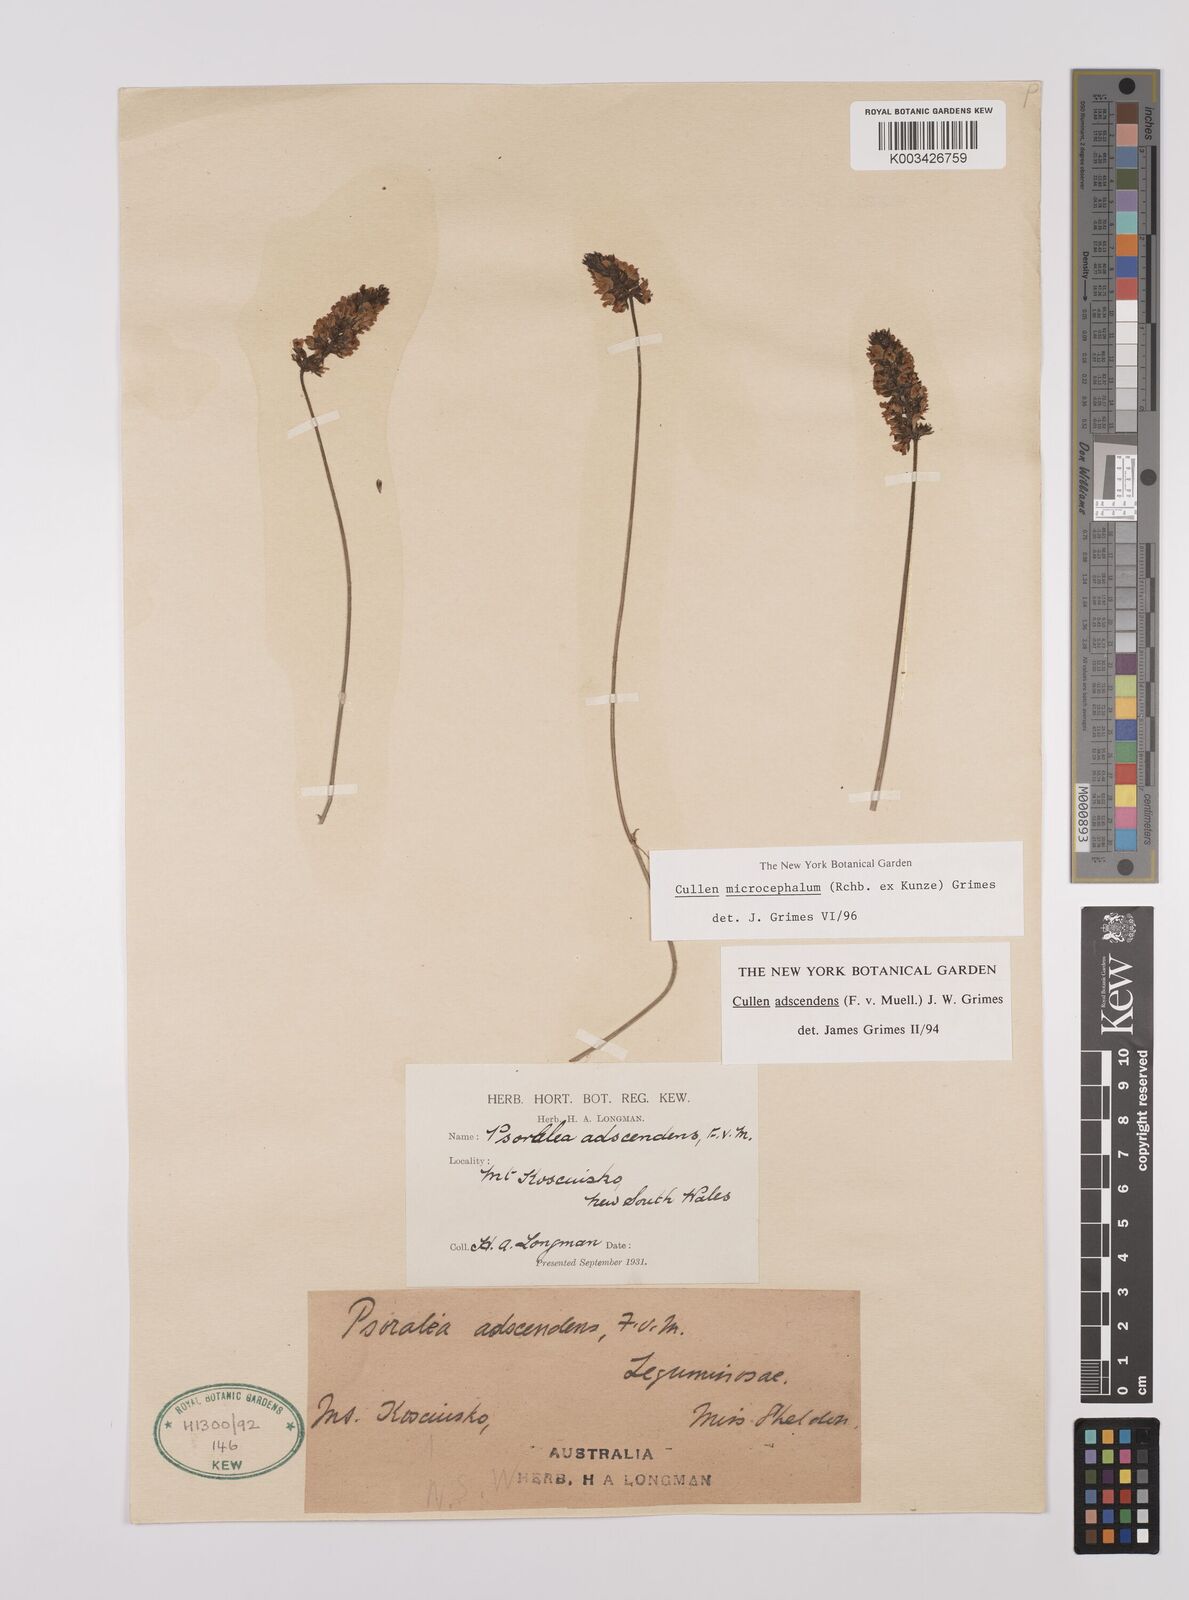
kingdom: Plantae
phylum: Tracheophyta
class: Magnoliopsida
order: Fabales
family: Fabaceae
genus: Cullen
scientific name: Cullen microcephalum
